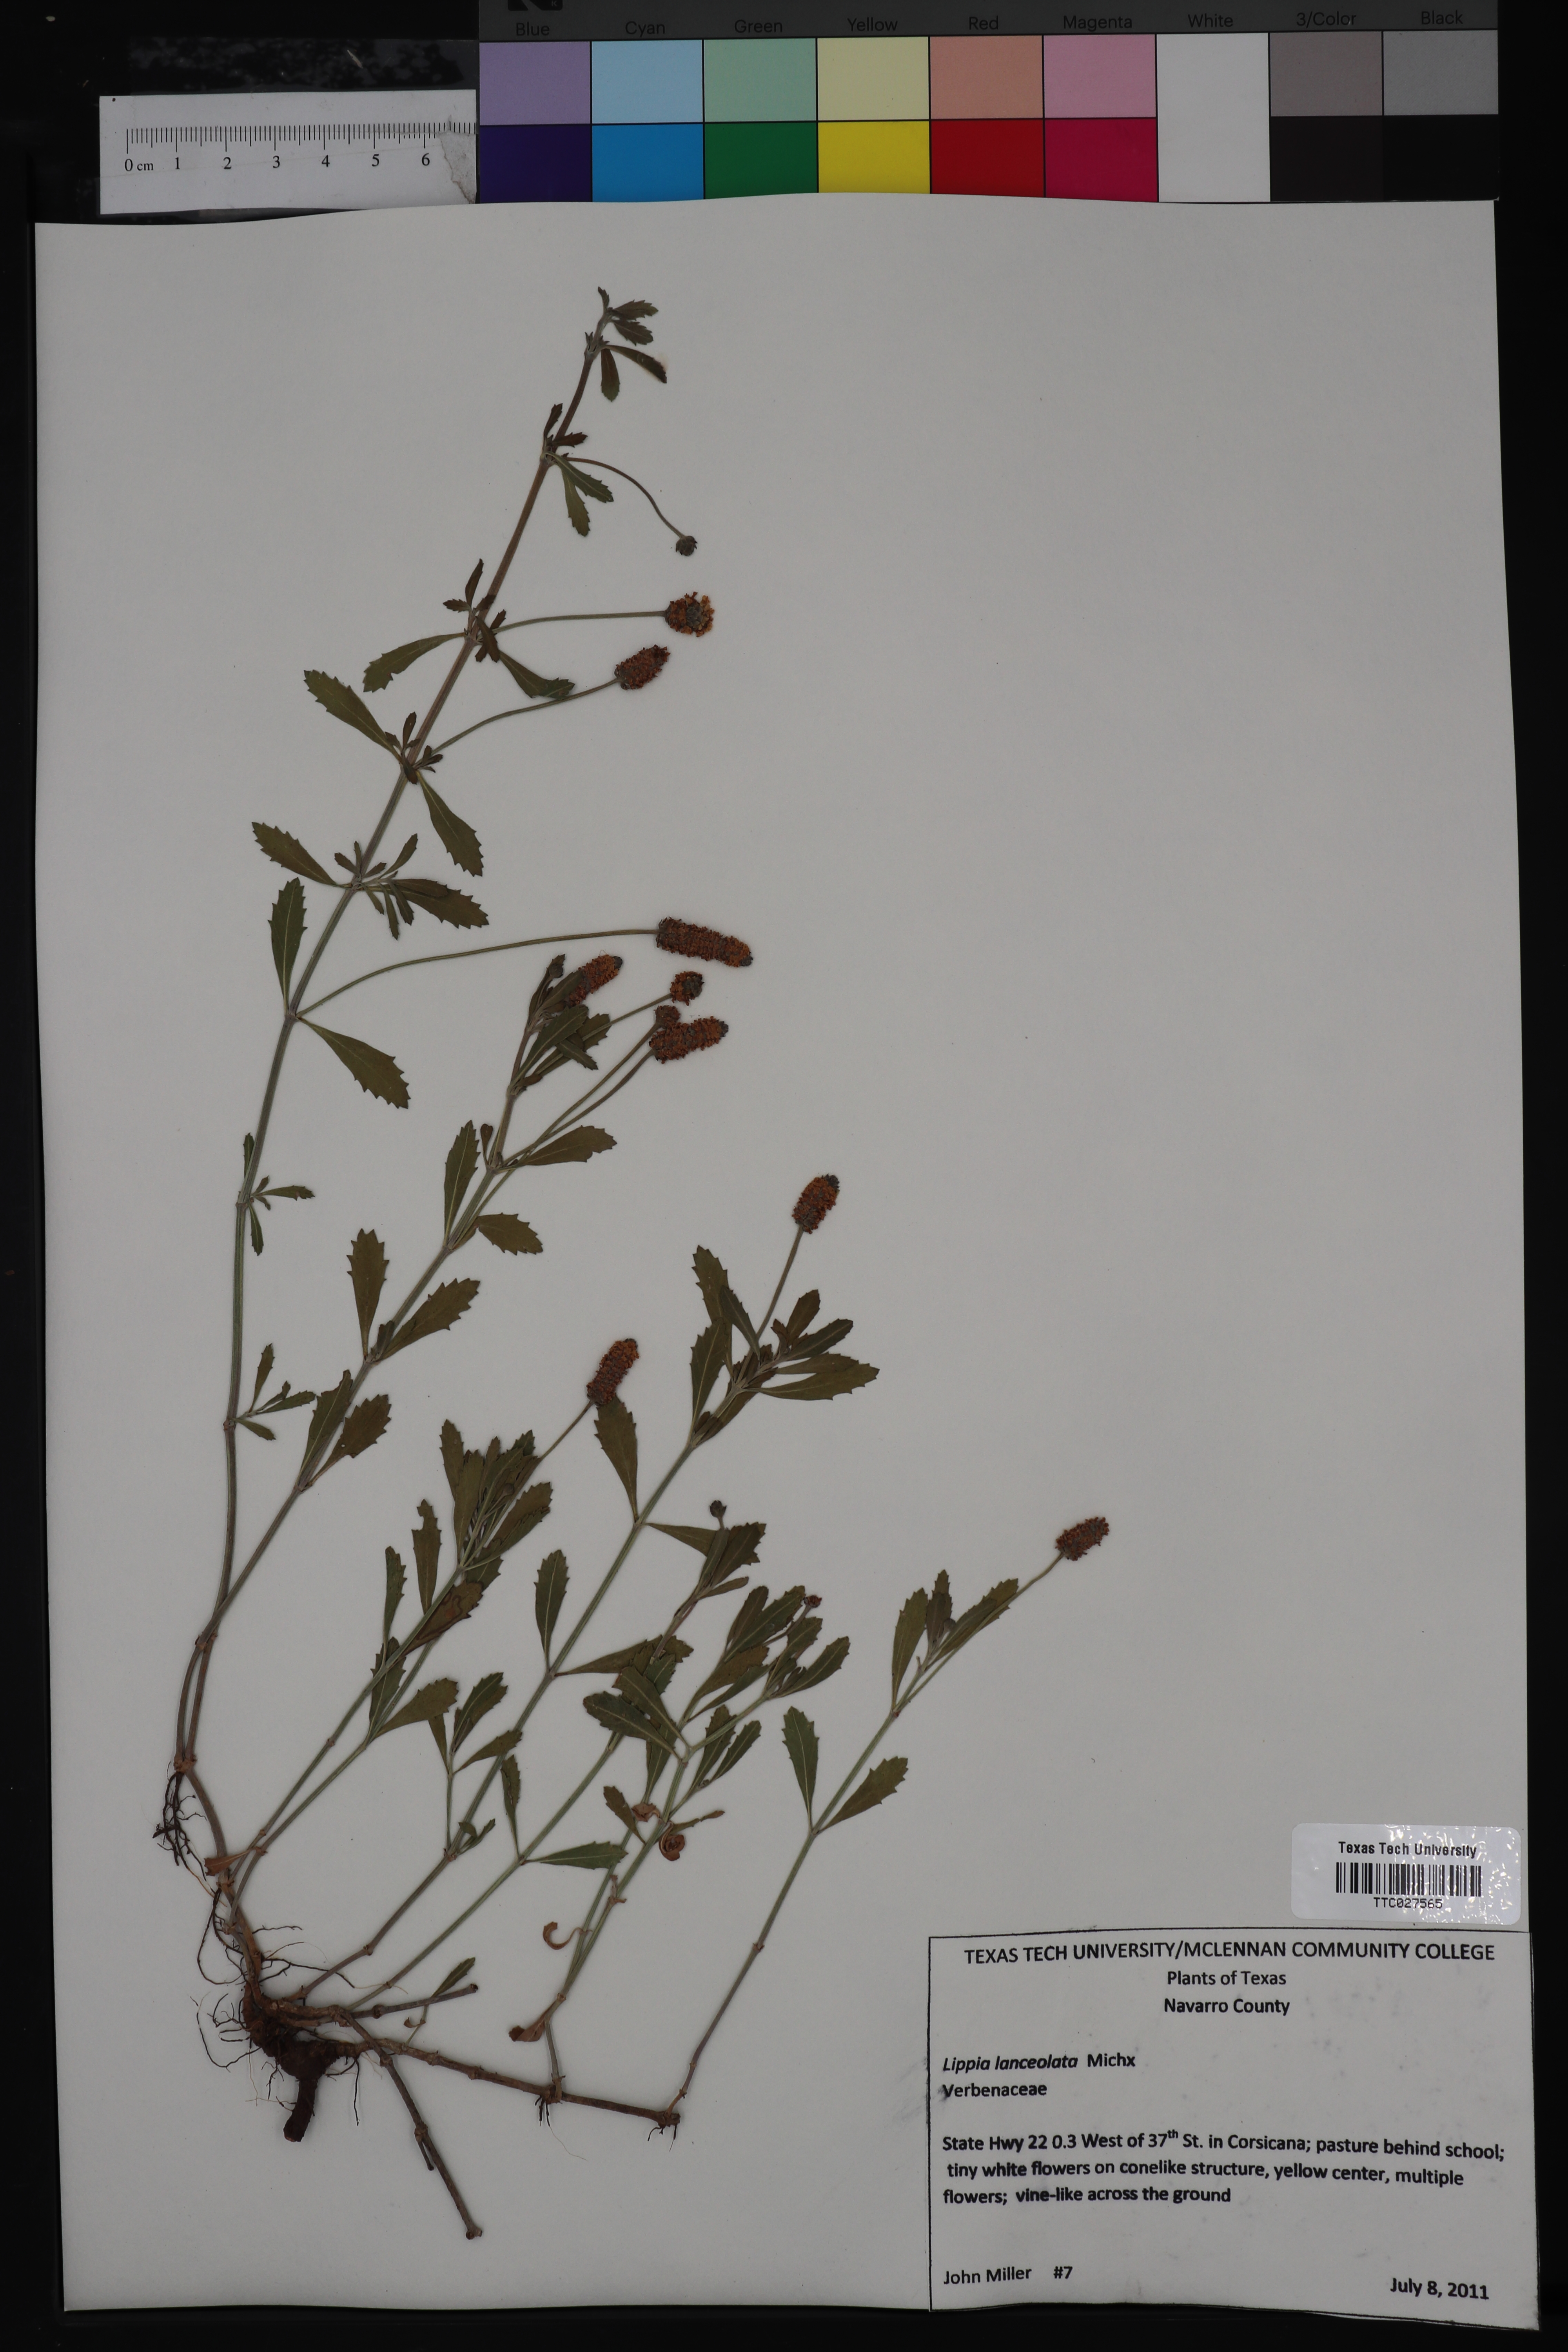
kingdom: Plantae
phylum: Tracheophyta
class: Magnoliopsida
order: Lamiales
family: Verbenaceae
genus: Phyla
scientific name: Phyla lanceolata
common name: Northern fogfruit
